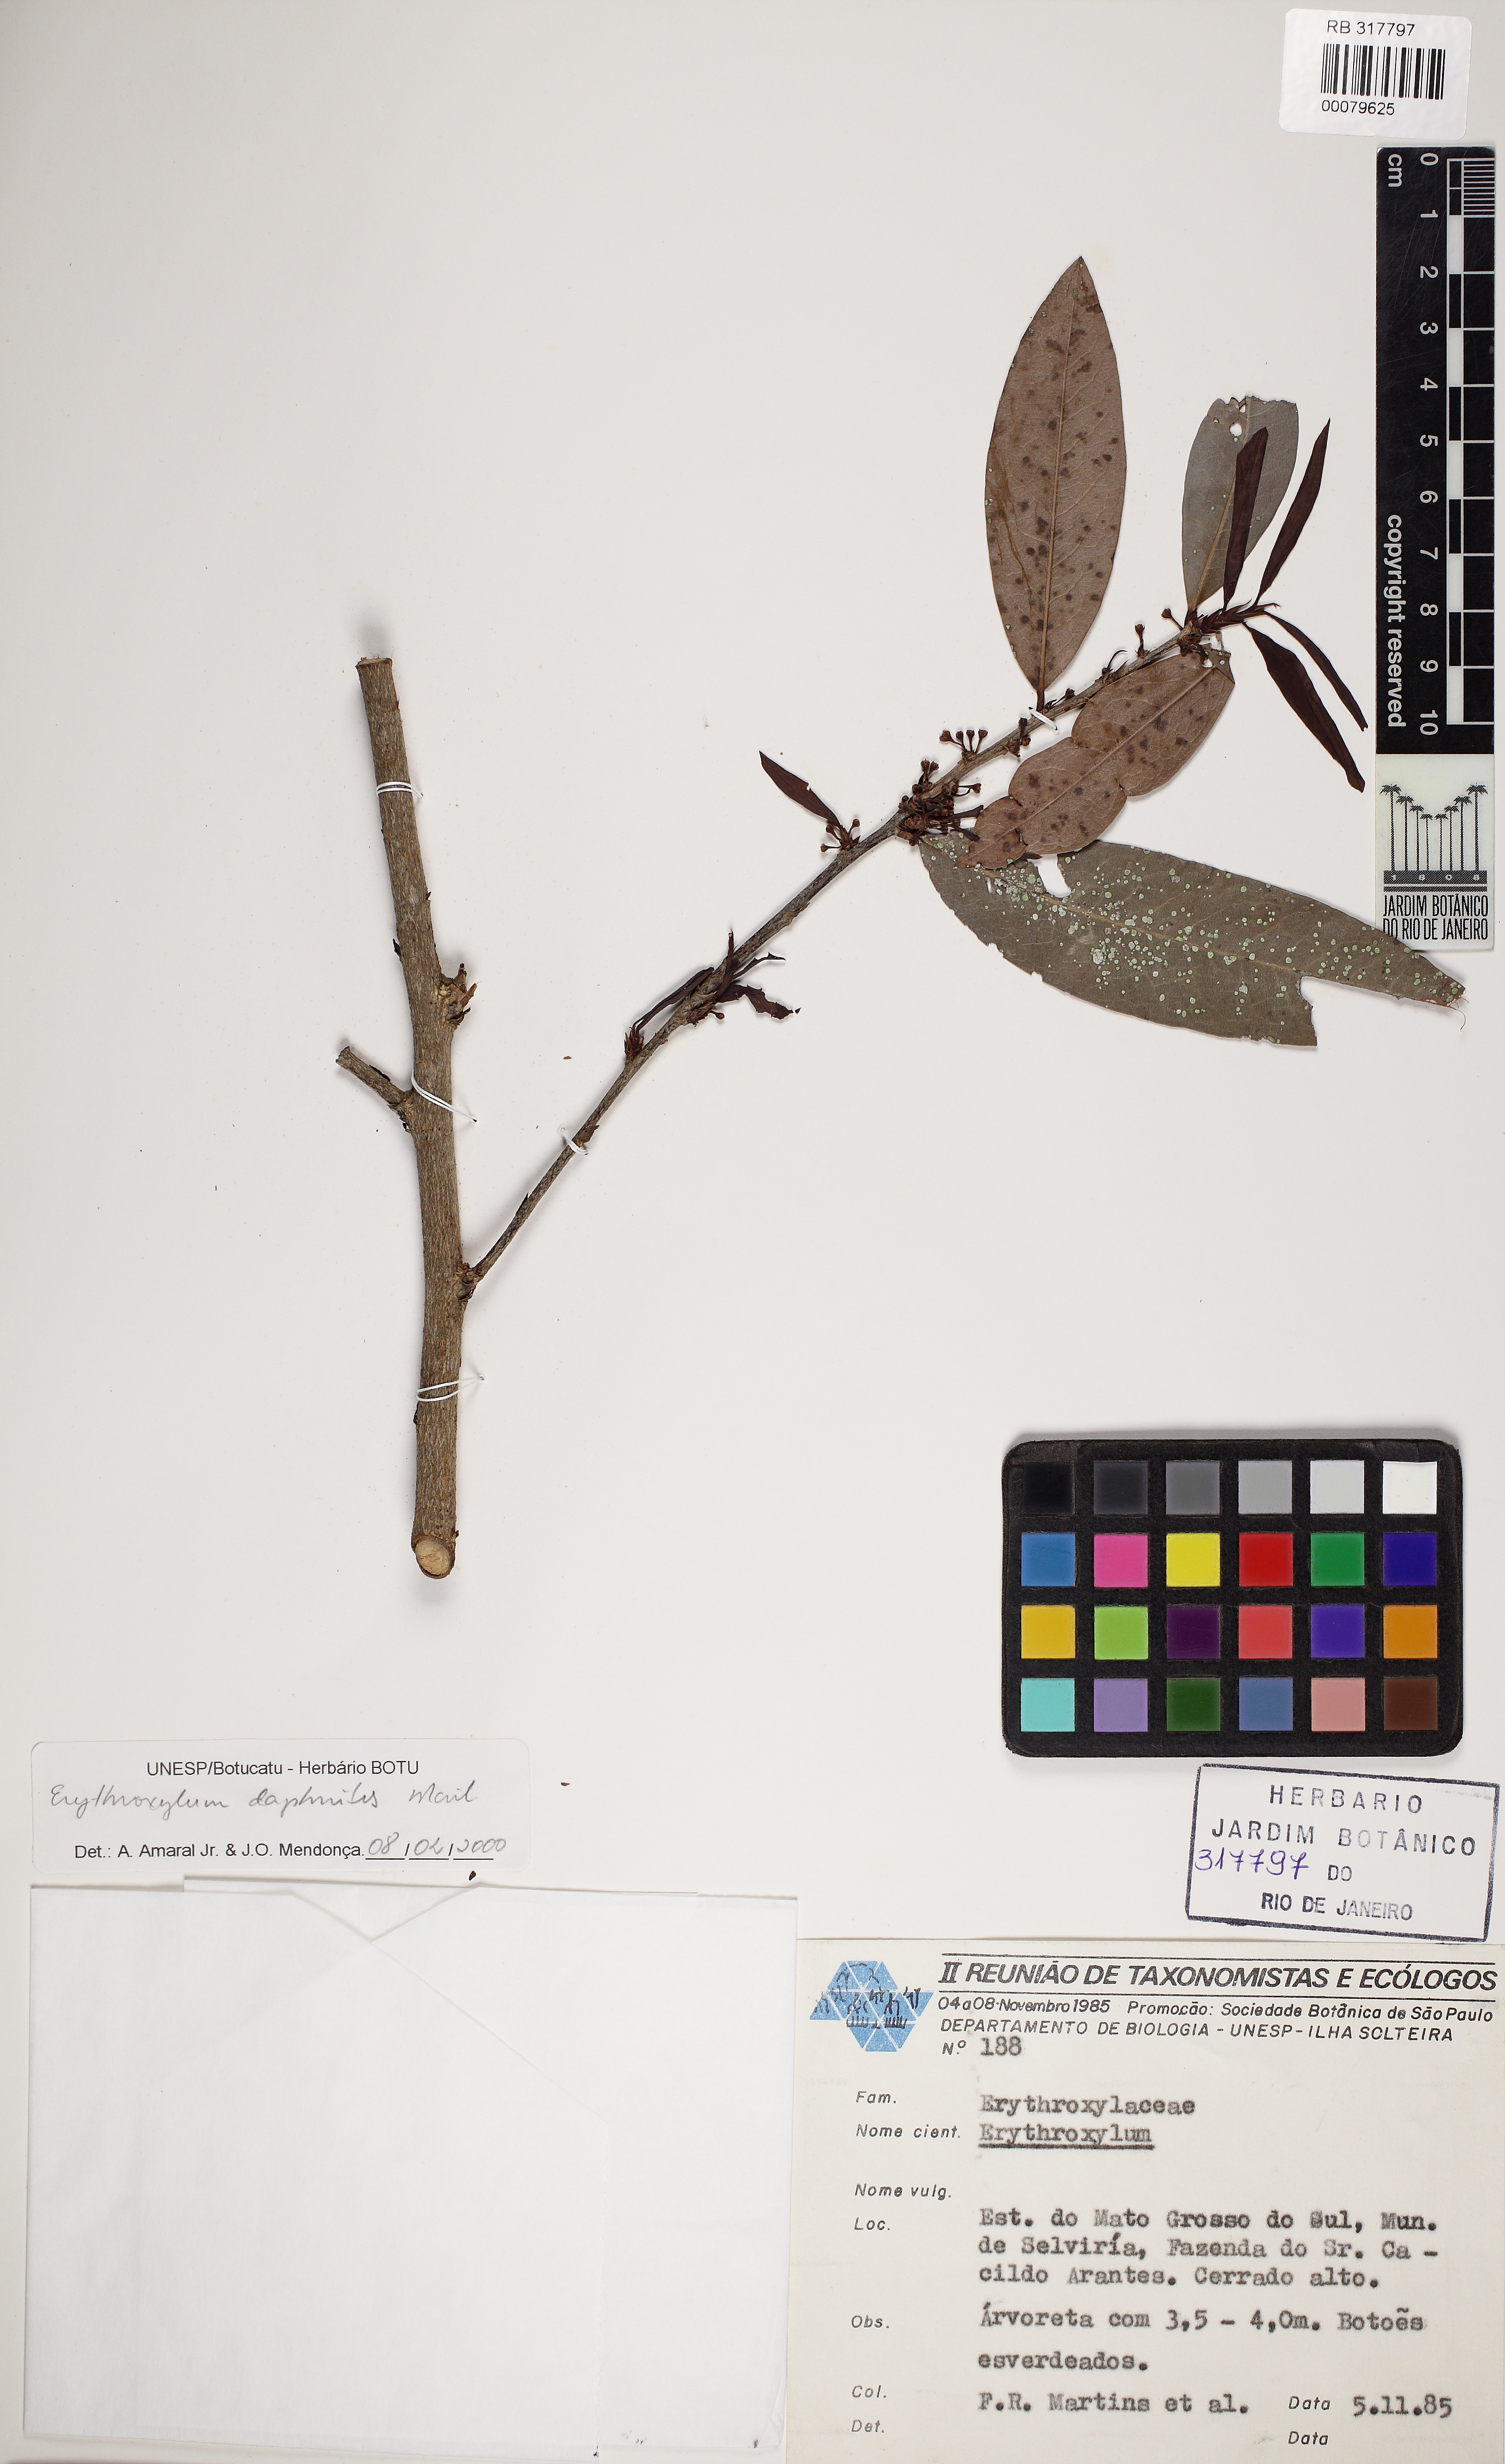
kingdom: Plantae
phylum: Tracheophyta
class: Magnoliopsida
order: Malpighiales
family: Erythroxylaceae
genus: Erythroxylum
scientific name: Erythroxylum daphnites
